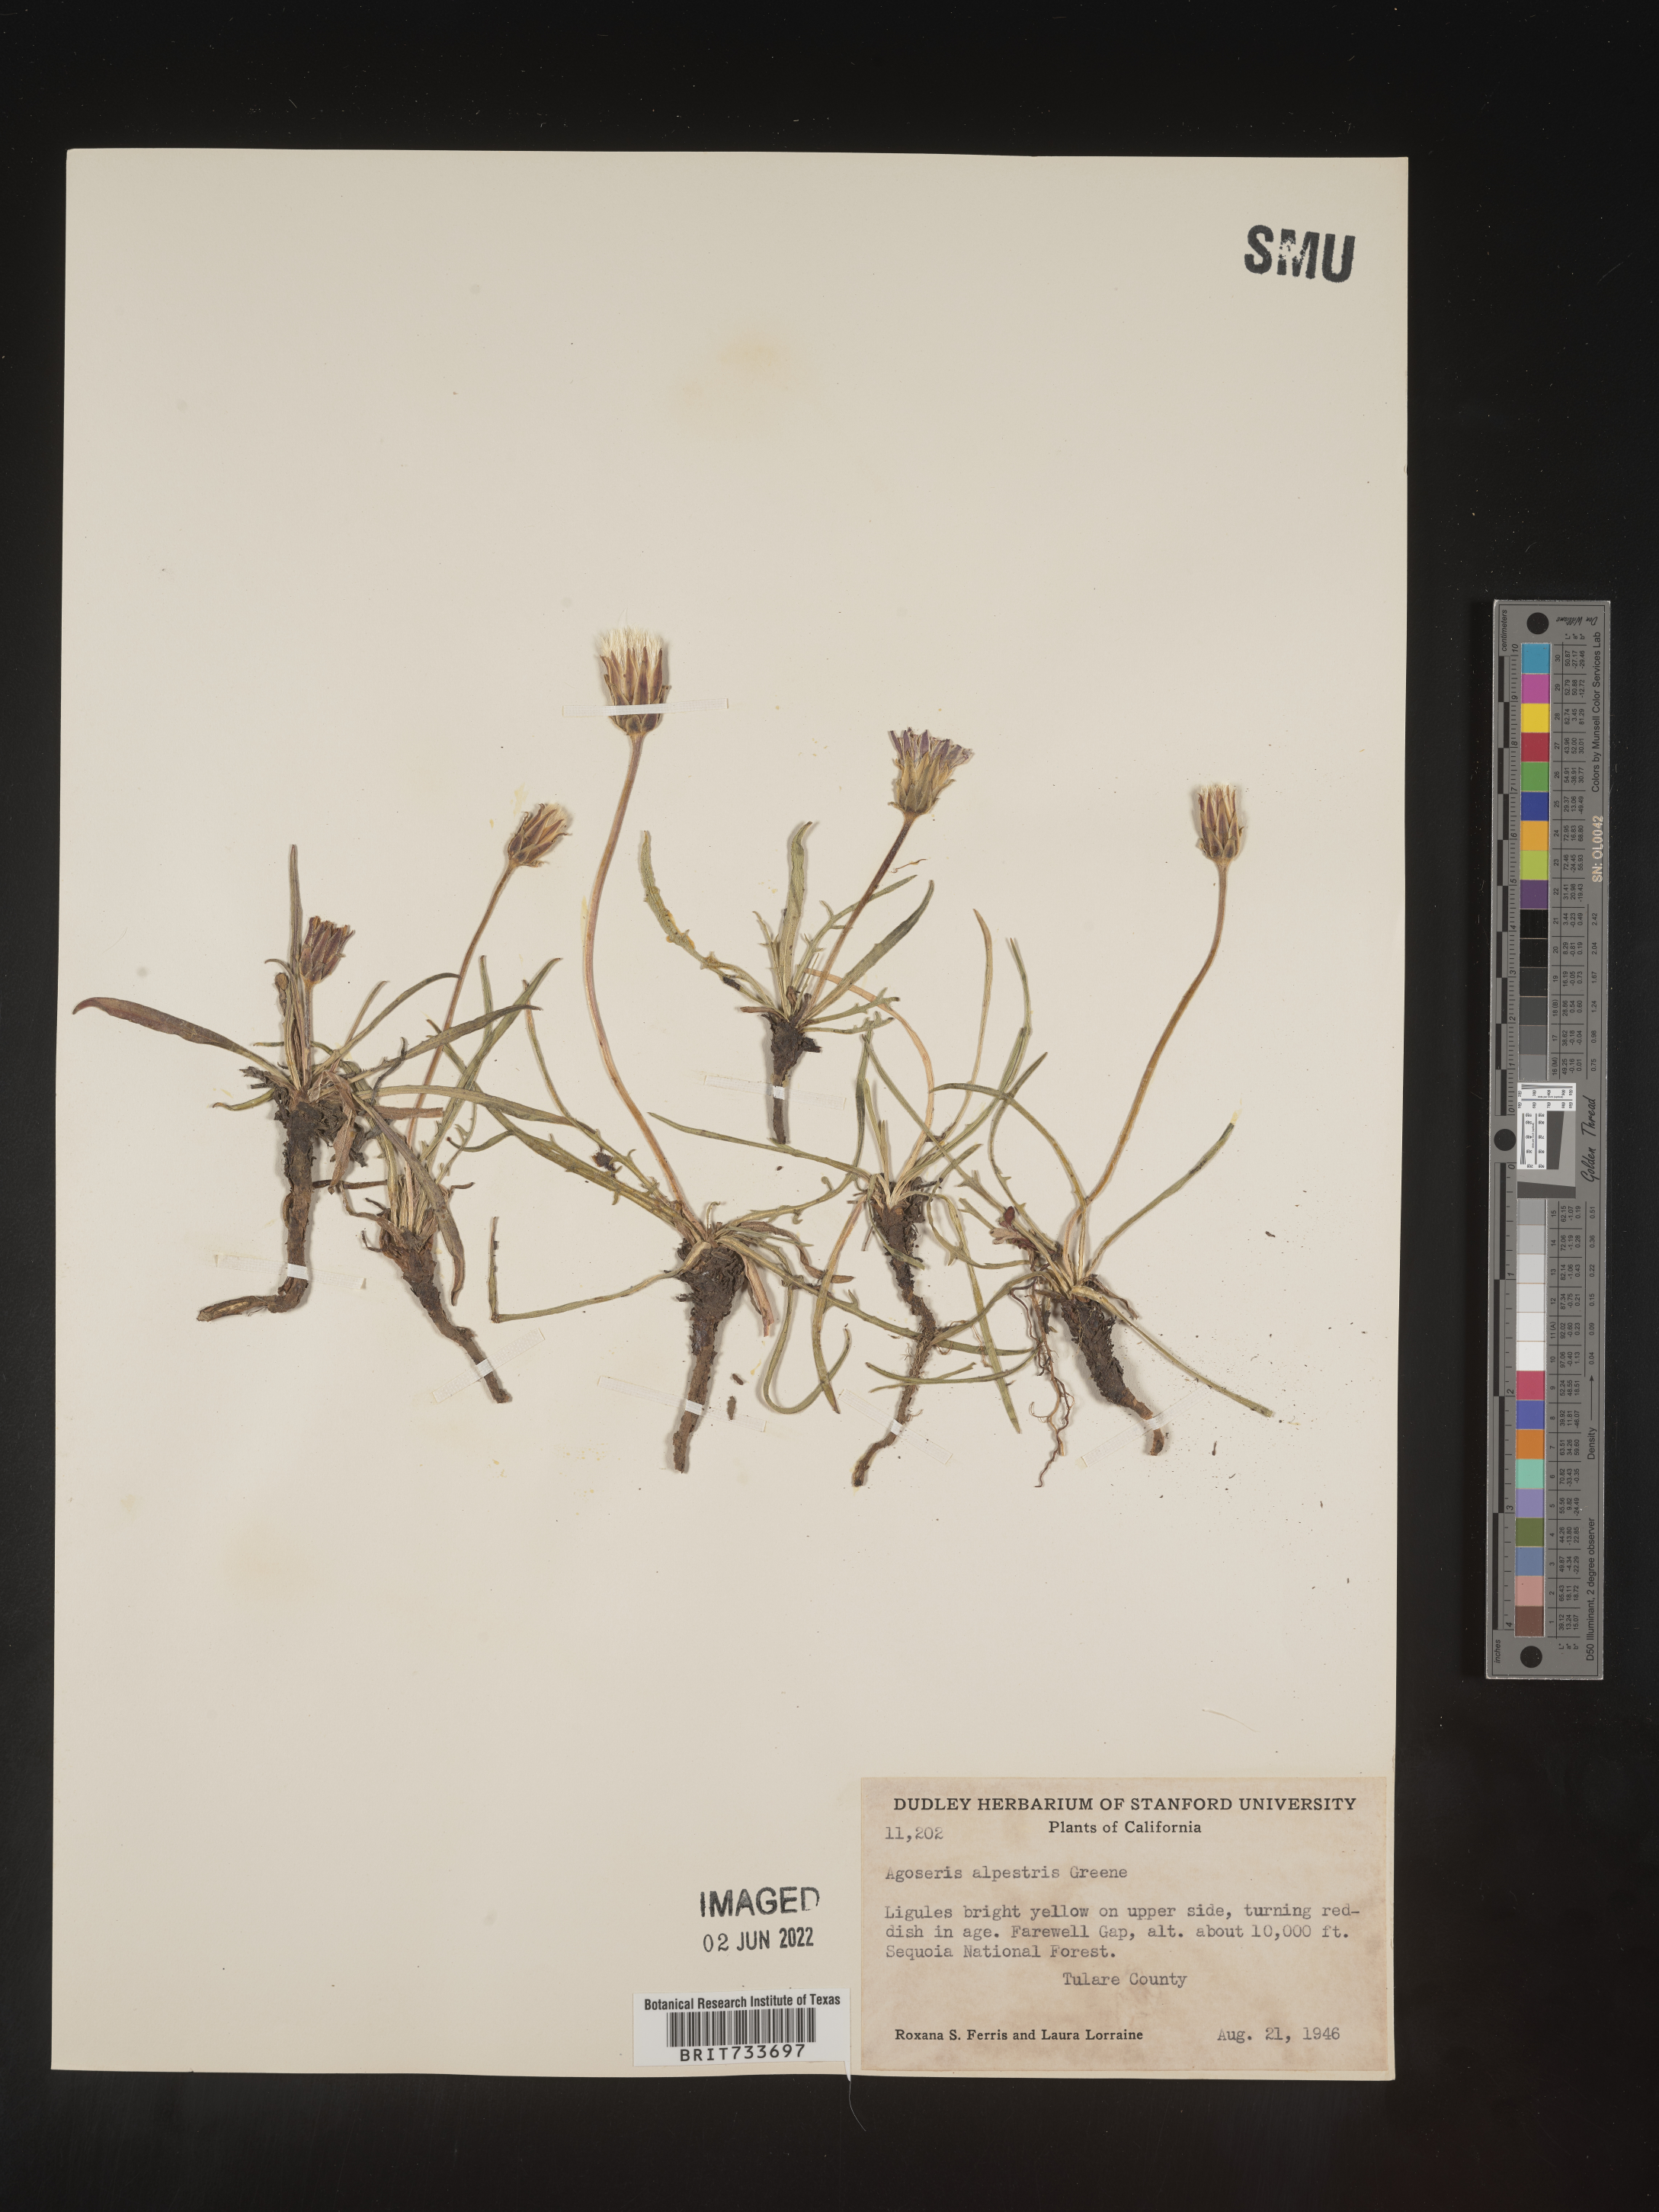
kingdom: Plantae
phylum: Tracheophyta
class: Magnoliopsida
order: Asterales
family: Asteraceae
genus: Microseris
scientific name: Microseris
